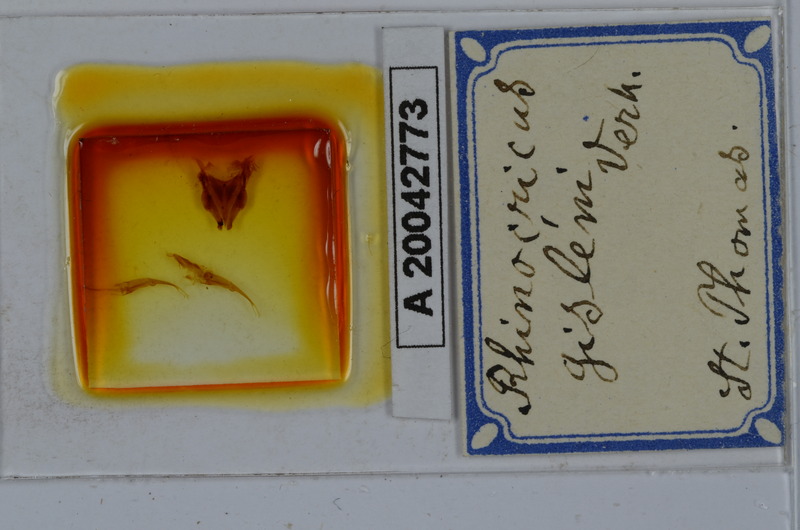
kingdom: Animalia
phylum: Arthropoda
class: Diplopoda
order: Spirobolida
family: Rhinocricidae
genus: Anadenobolus
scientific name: Anadenobolus gisleni
